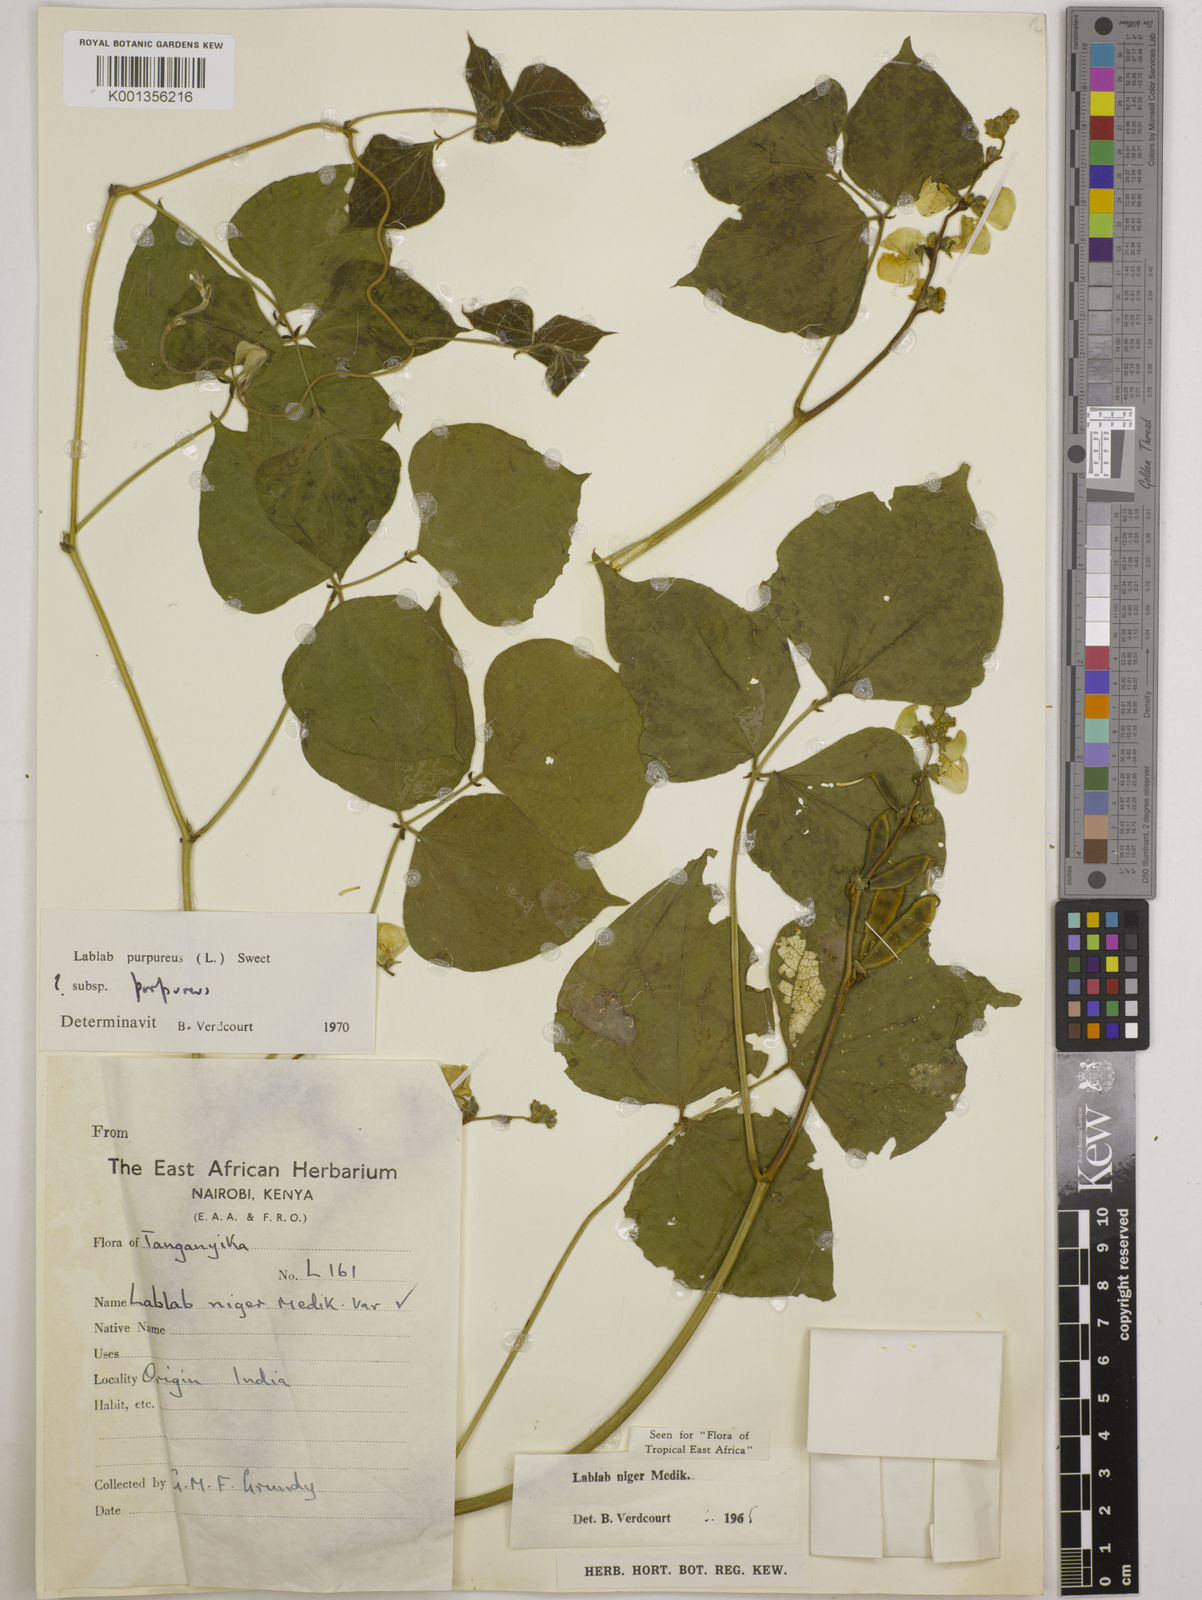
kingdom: Plantae
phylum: Tracheophyta
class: Magnoliopsida
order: Fabales
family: Fabaceae
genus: Lablab
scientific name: Lablab purpureus
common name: Lablab-bean
